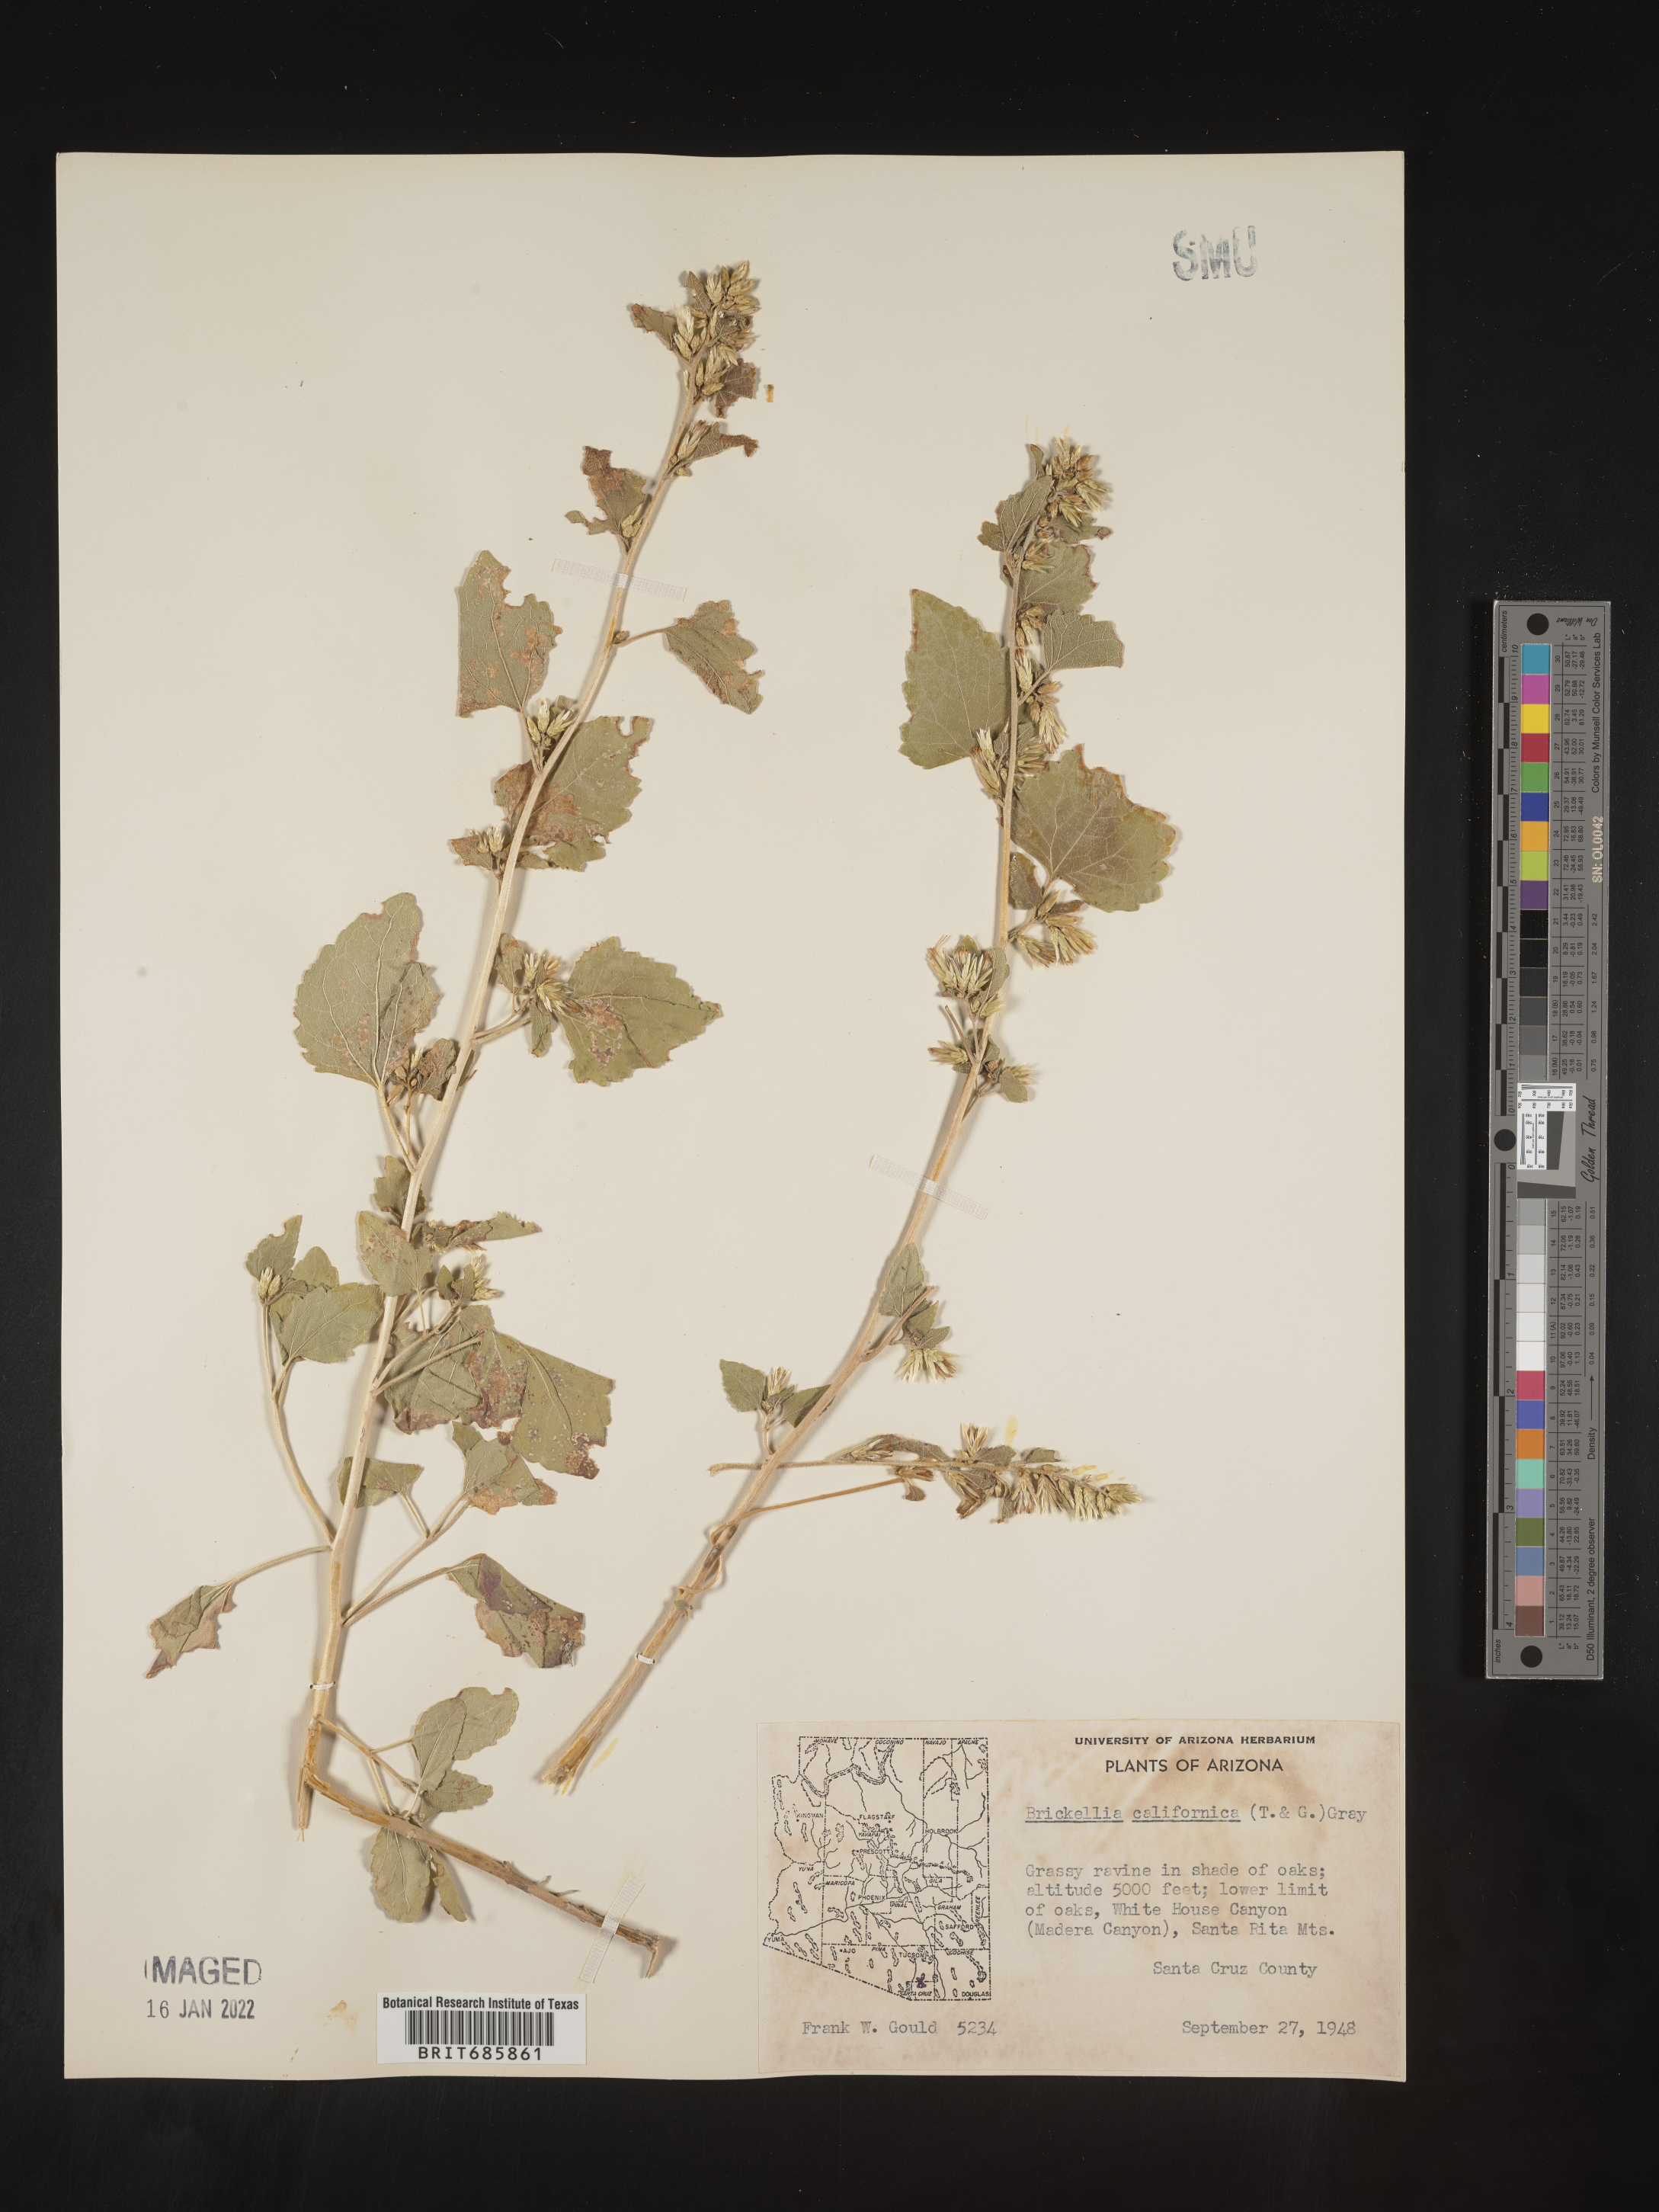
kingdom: Plantae
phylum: Tracheophyta
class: Magnoliopsida
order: Asterales
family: Asteraceae
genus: Brickellia
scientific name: Brickellia californica
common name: California brickellbush
